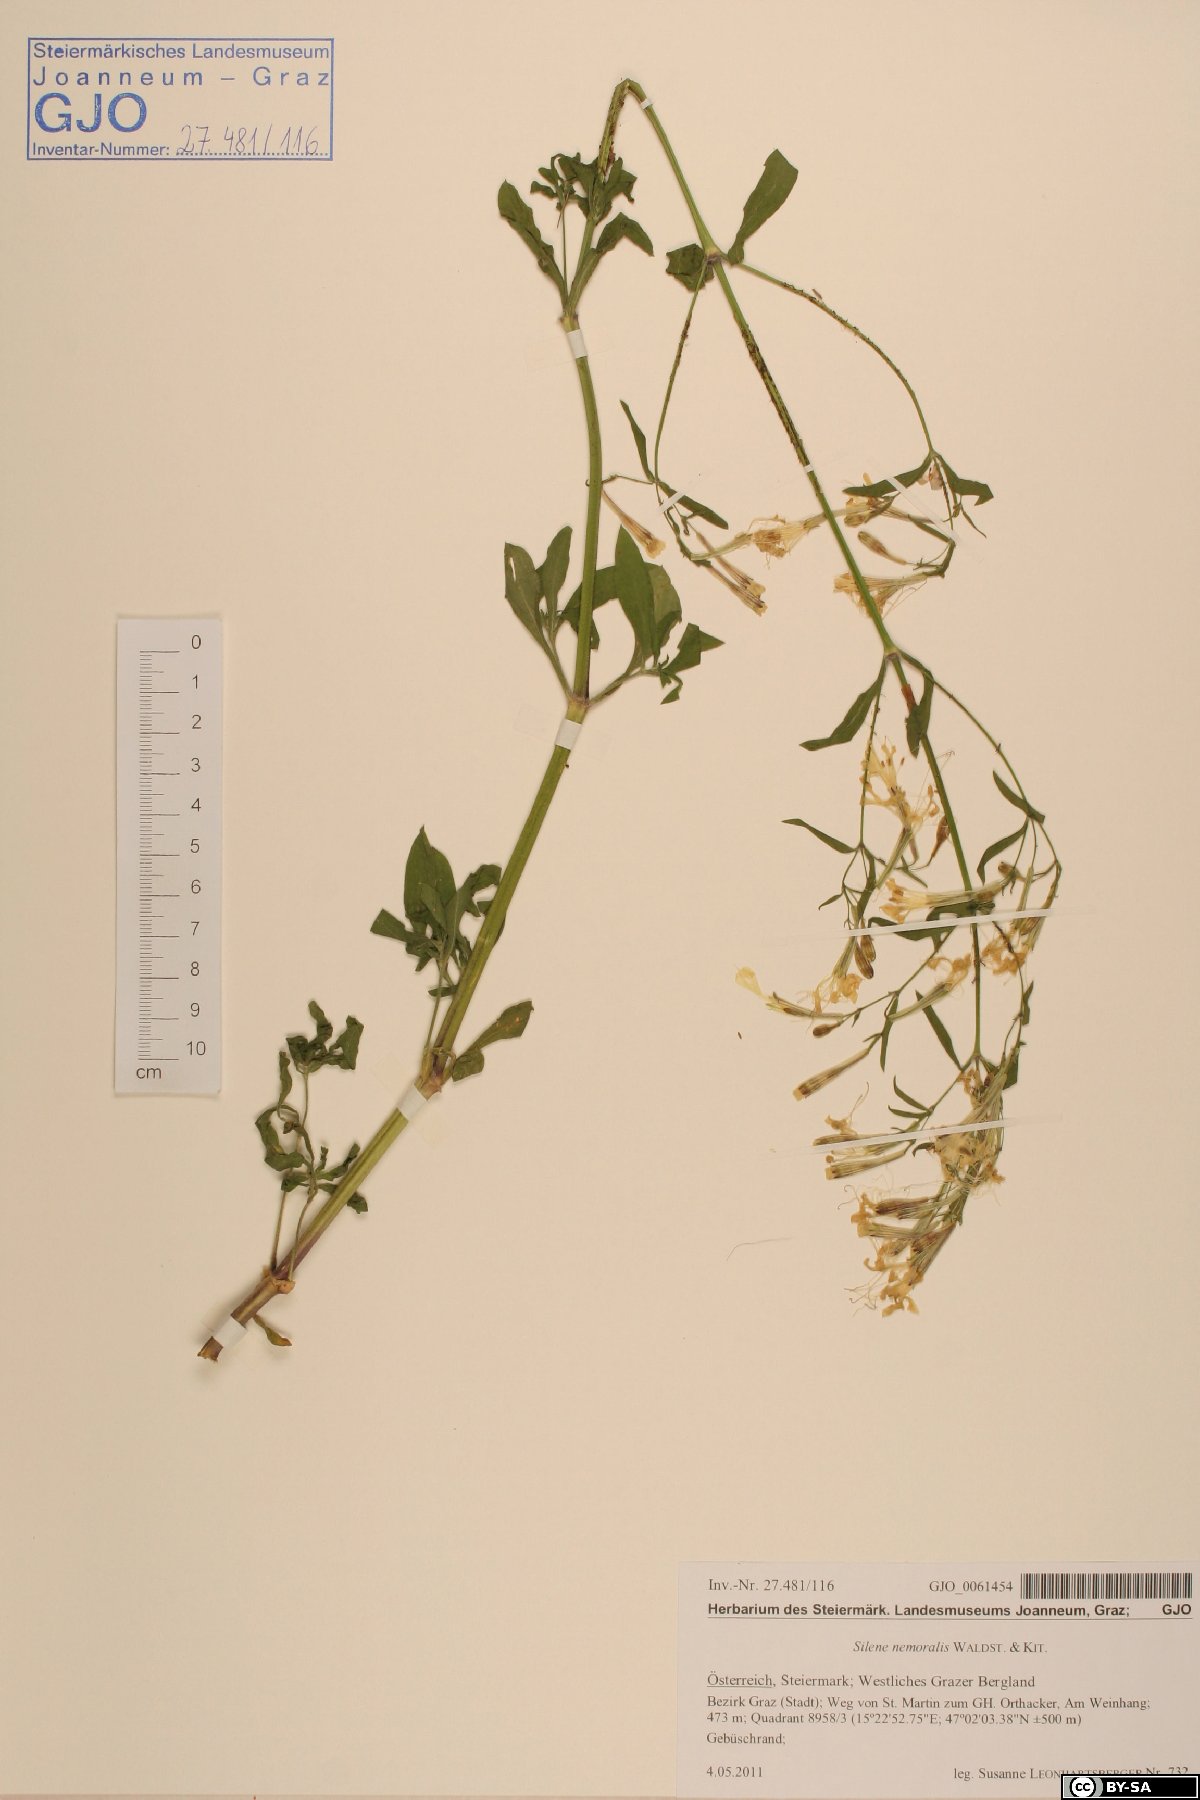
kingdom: Plantae
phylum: Tracheophyta
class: Magnoliopsida
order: Caryophyllales
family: Caryophyllaceae
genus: Silene
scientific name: Silene nemoralis
